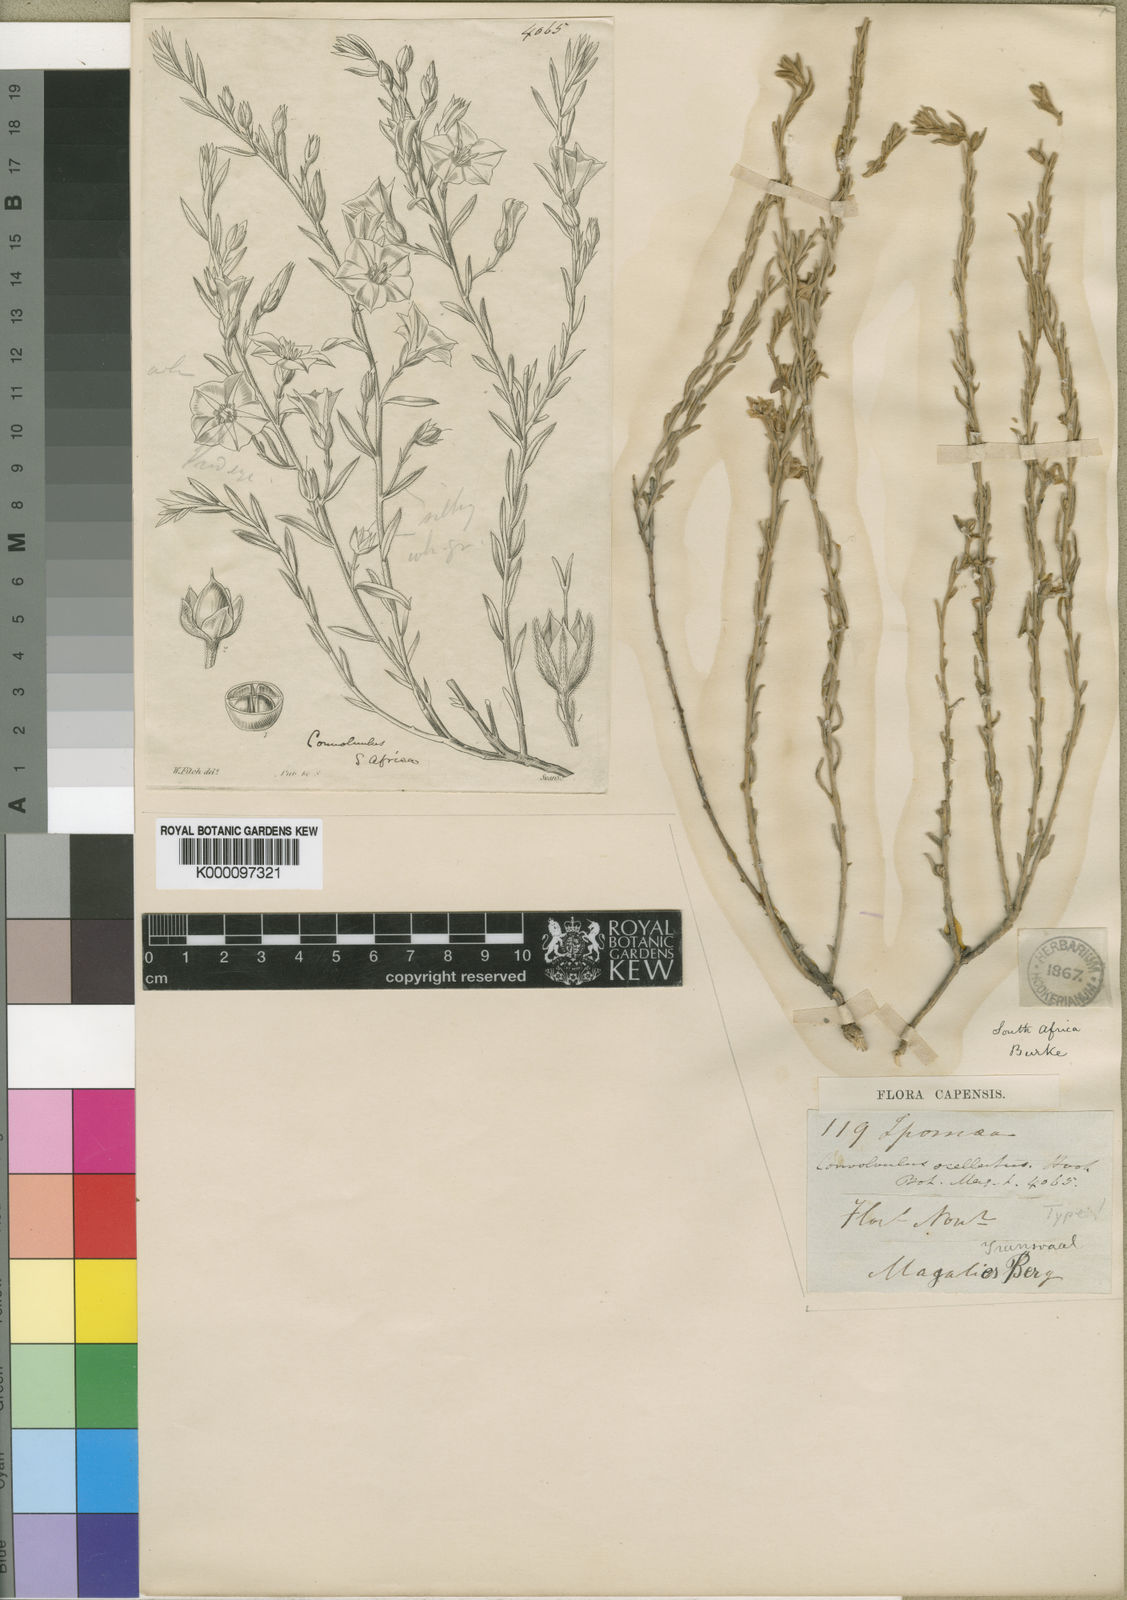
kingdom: Plantae
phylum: Tracheophyta
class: Magnoliopsida
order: Solanales
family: Convolvulaceae
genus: Convolvulus
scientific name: Convolvulus ocellatus
